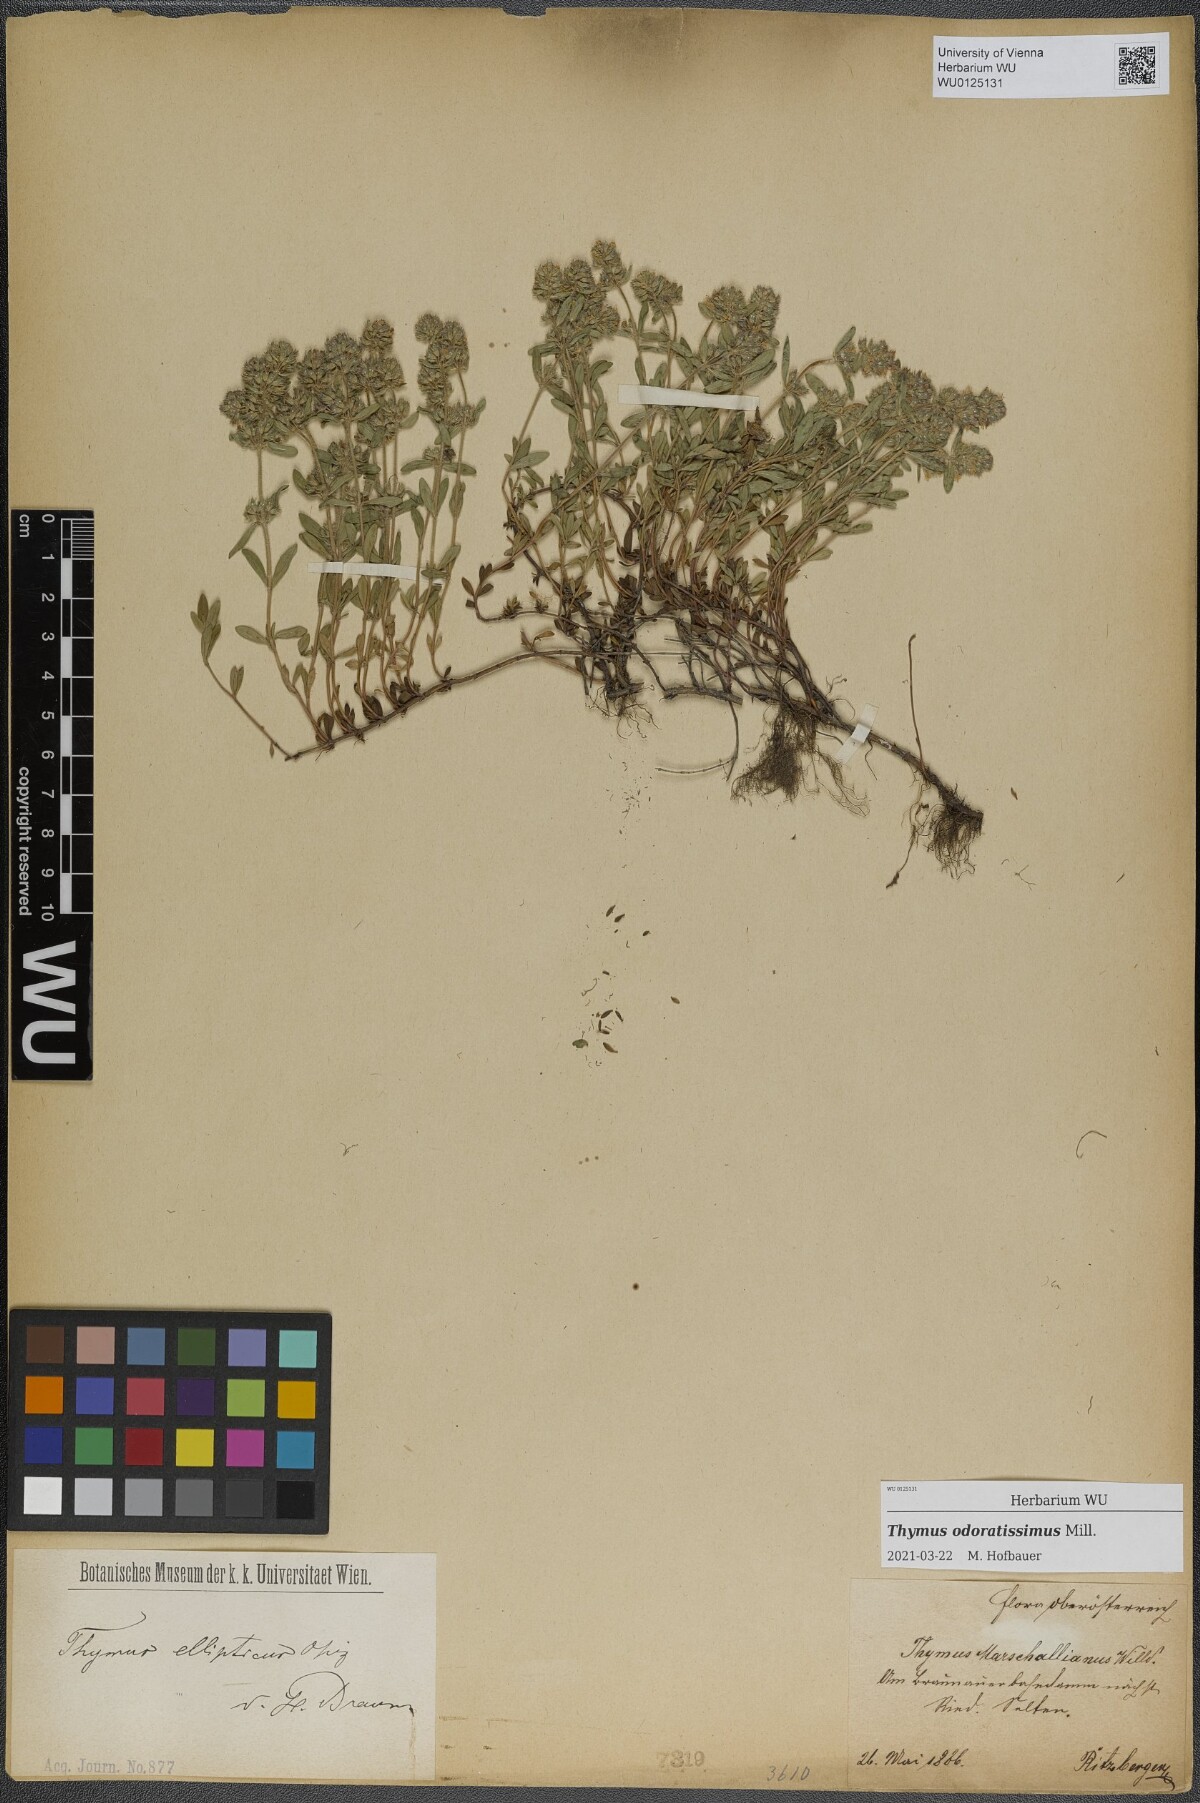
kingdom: Plantae
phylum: Tracheophyta
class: Magnoliopsida
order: Lamiales
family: Lamiaceae
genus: Thymus
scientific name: Thymus odoratissimus
